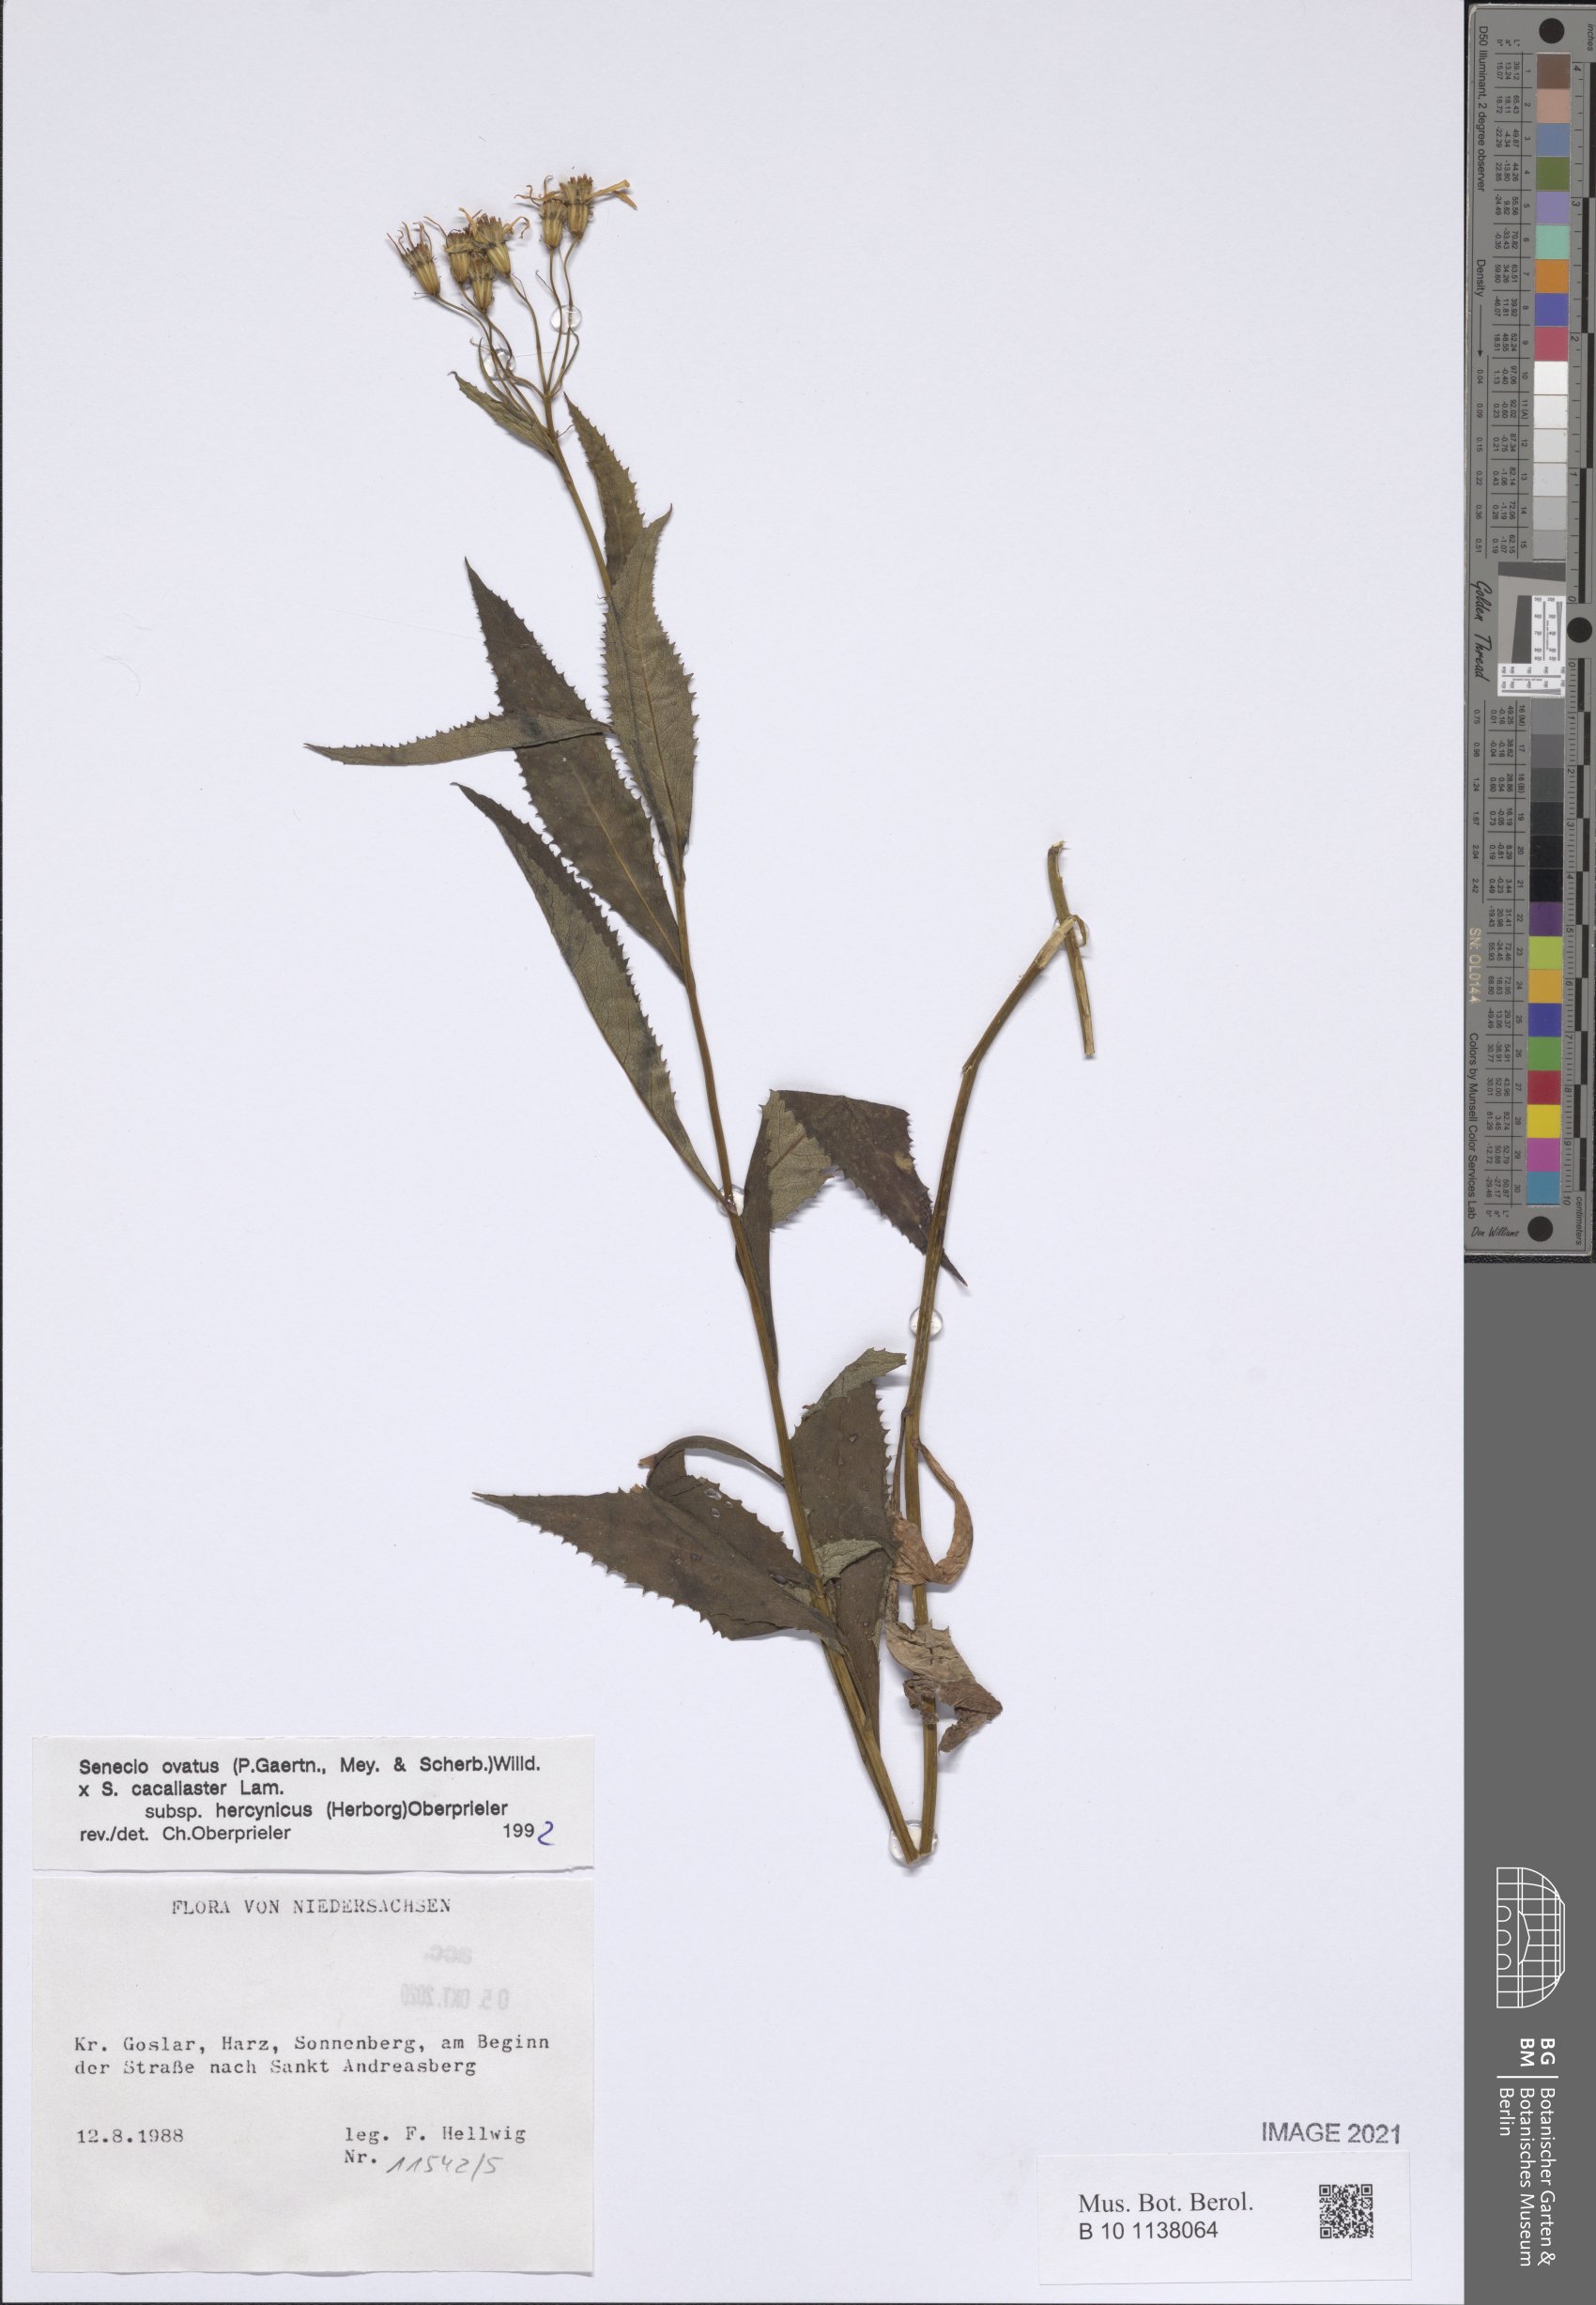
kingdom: Plantae
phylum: Tracheophyta
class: Magnoliopsida
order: Asterales
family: Asteraceae
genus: Senecio
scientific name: Senecio ovatus
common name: Wood ragwort
